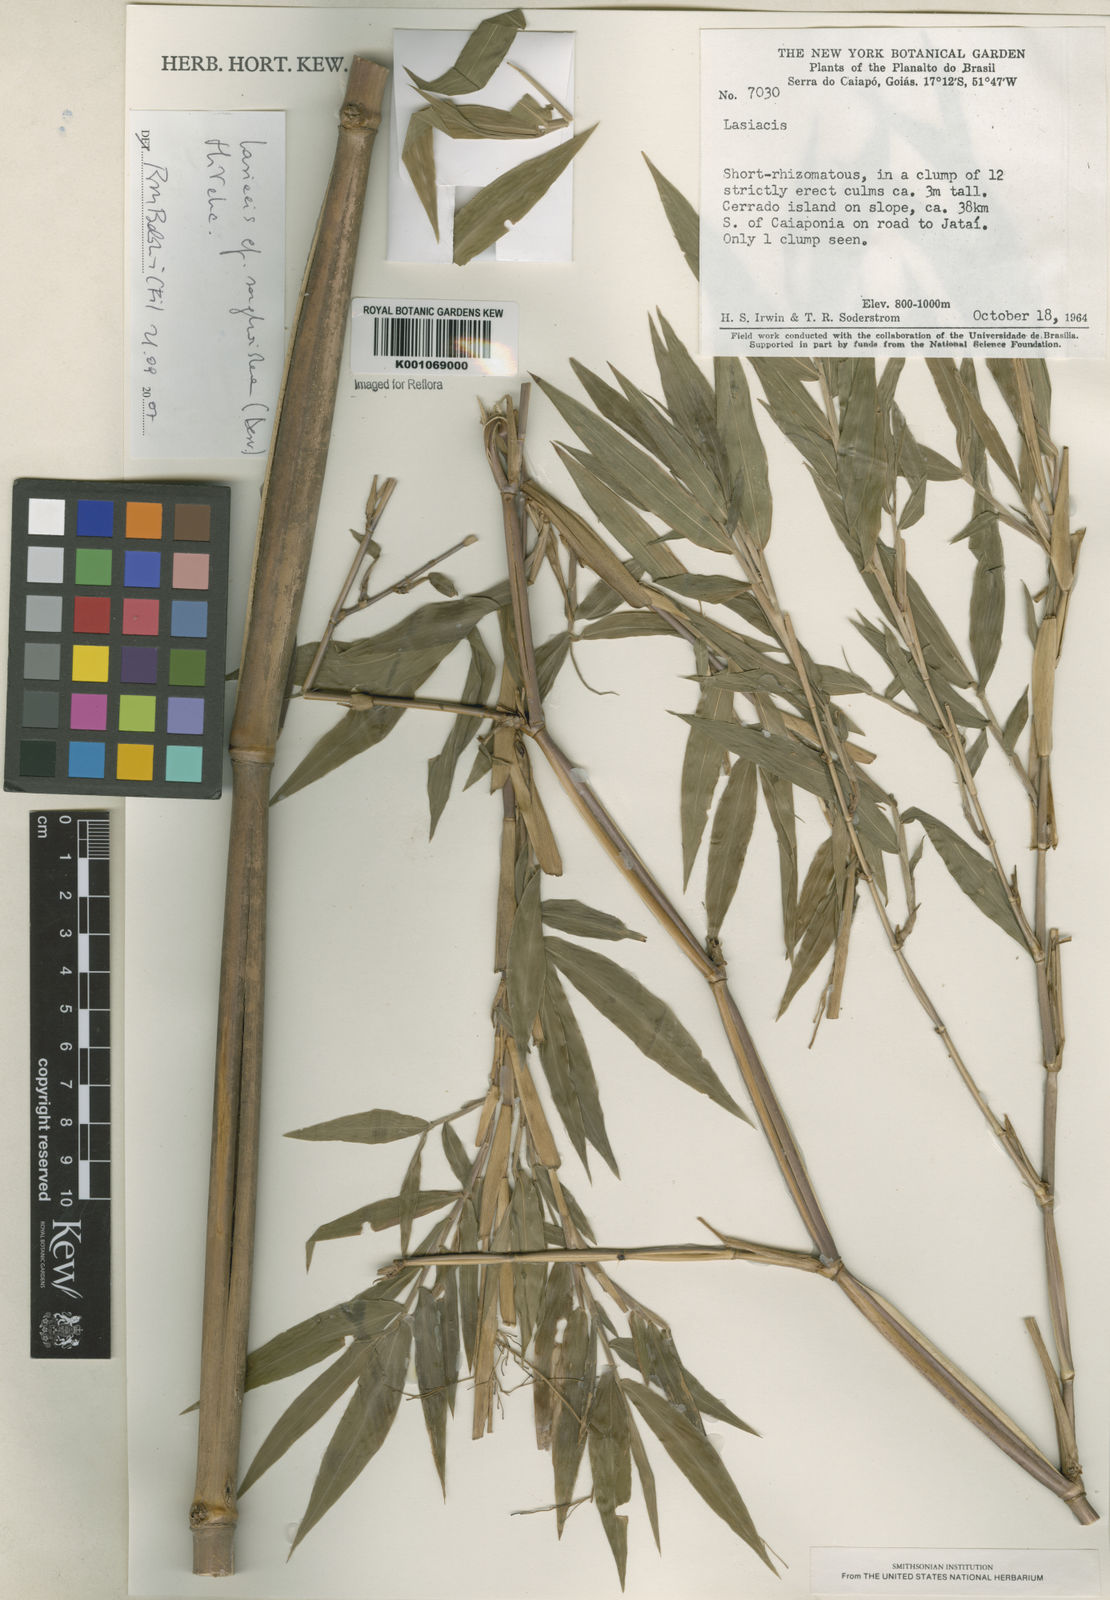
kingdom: Plantae
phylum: Tracheophyta
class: Liliopsida
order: Poales
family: Poaceae
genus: Lasiacis
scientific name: Lasiacis maculata
